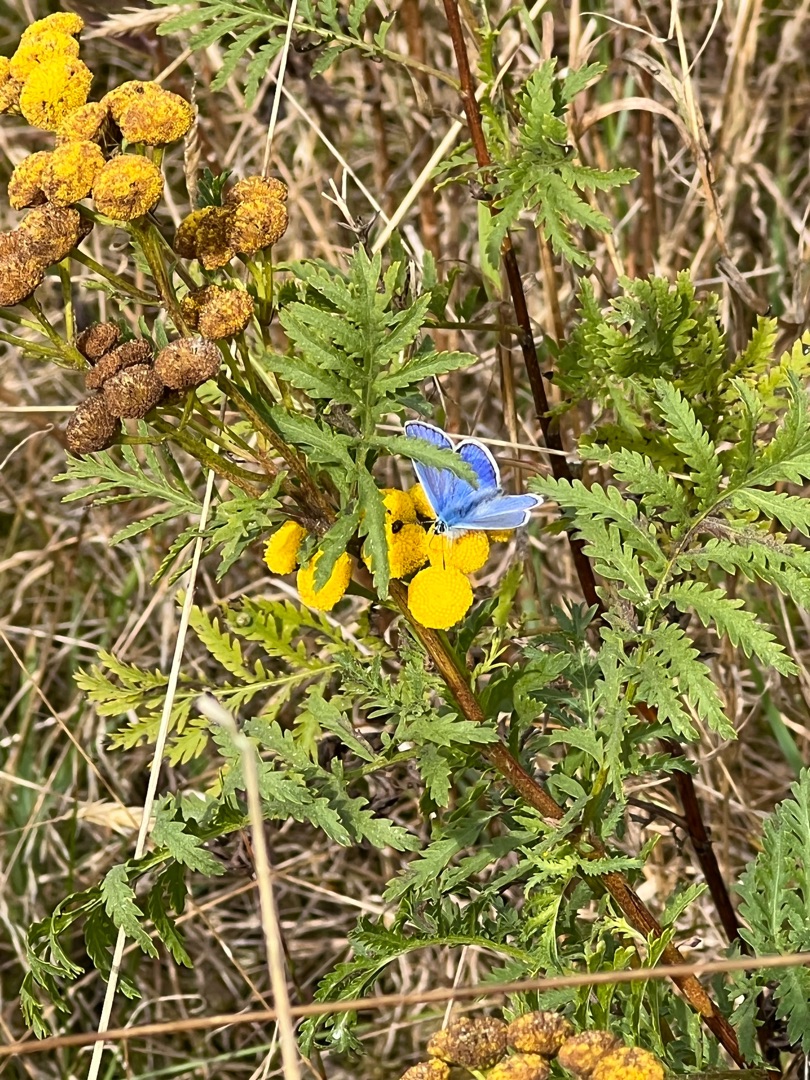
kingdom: Animalia
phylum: Arthropoda
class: Insecta
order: Lepidoptera
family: Lycaenidae
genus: Polyommatus
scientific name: Polyommatus icarus
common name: Almindelig blåfugl
